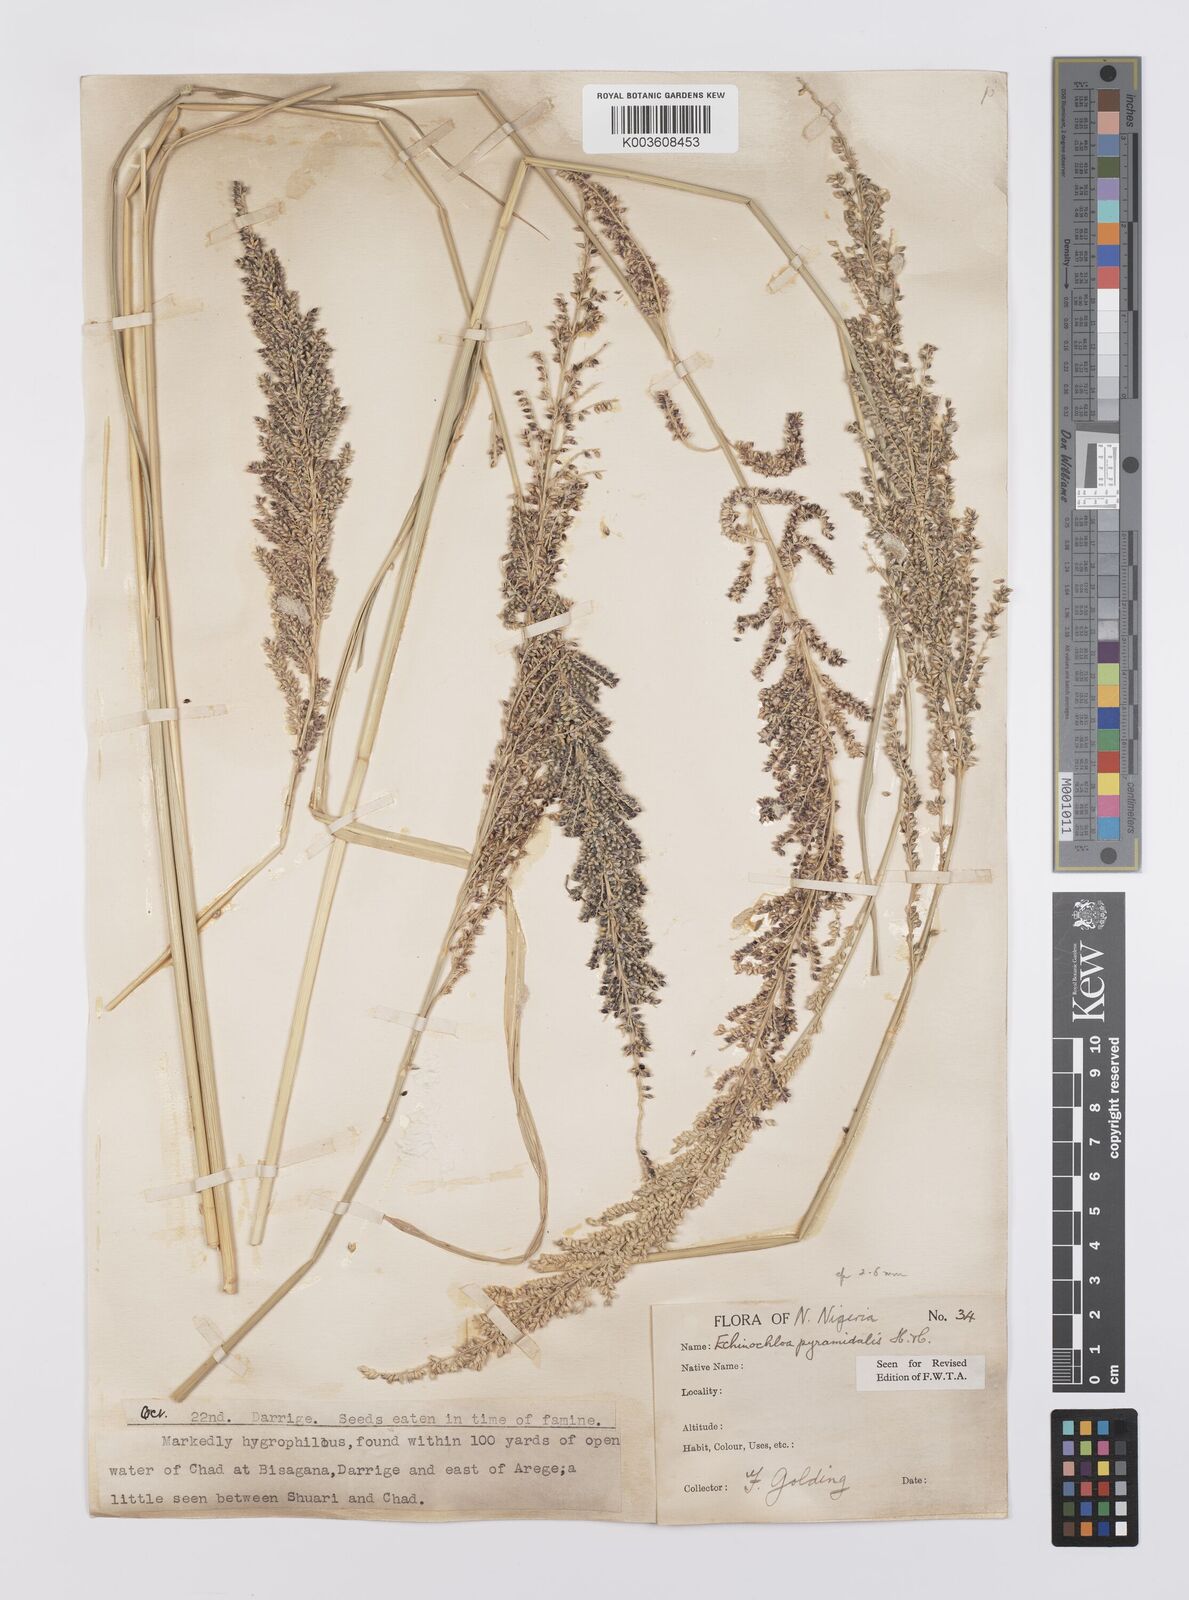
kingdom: Plantae
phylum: Tracheophyta
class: Liliopsida
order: Poales
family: Poaceae
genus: Echinochloa
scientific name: Echinochloa pyramidalis
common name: Antelope grass
